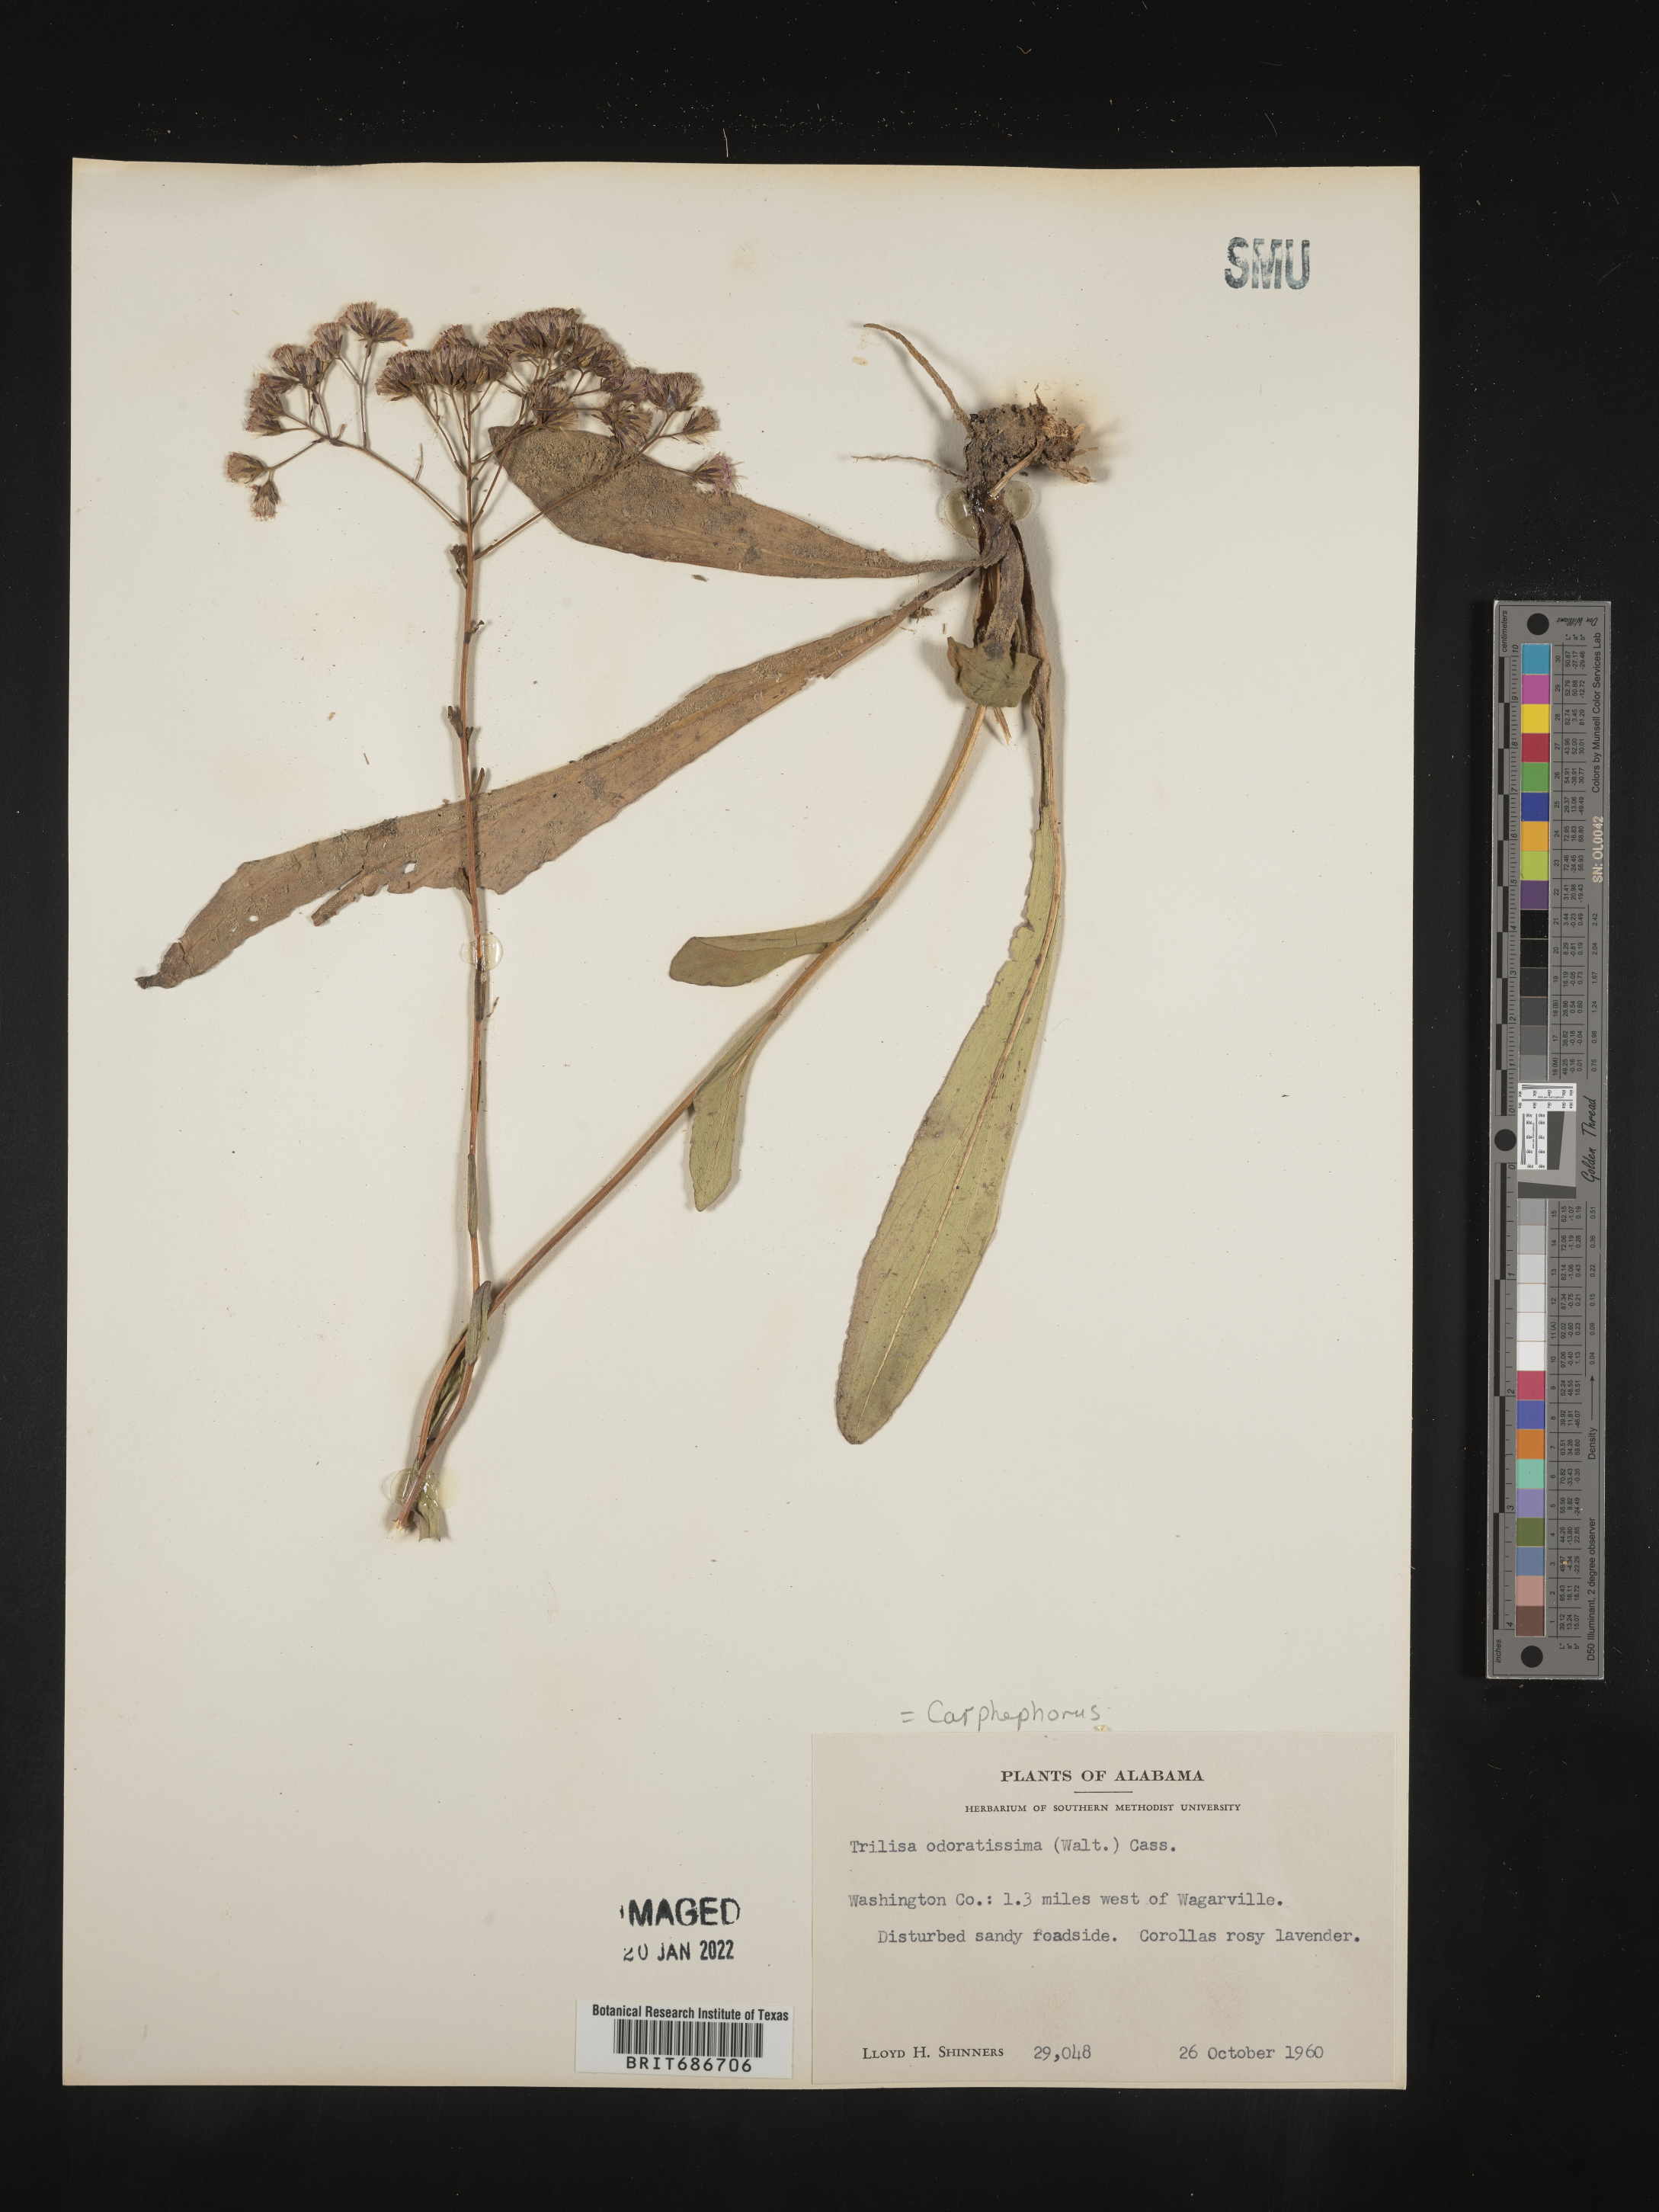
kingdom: Plantae
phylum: Tracheophyta
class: Magnoliopsida
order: Asterales
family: Asteraceae
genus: Carphephorus
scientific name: Carphephorus odoratissimus
